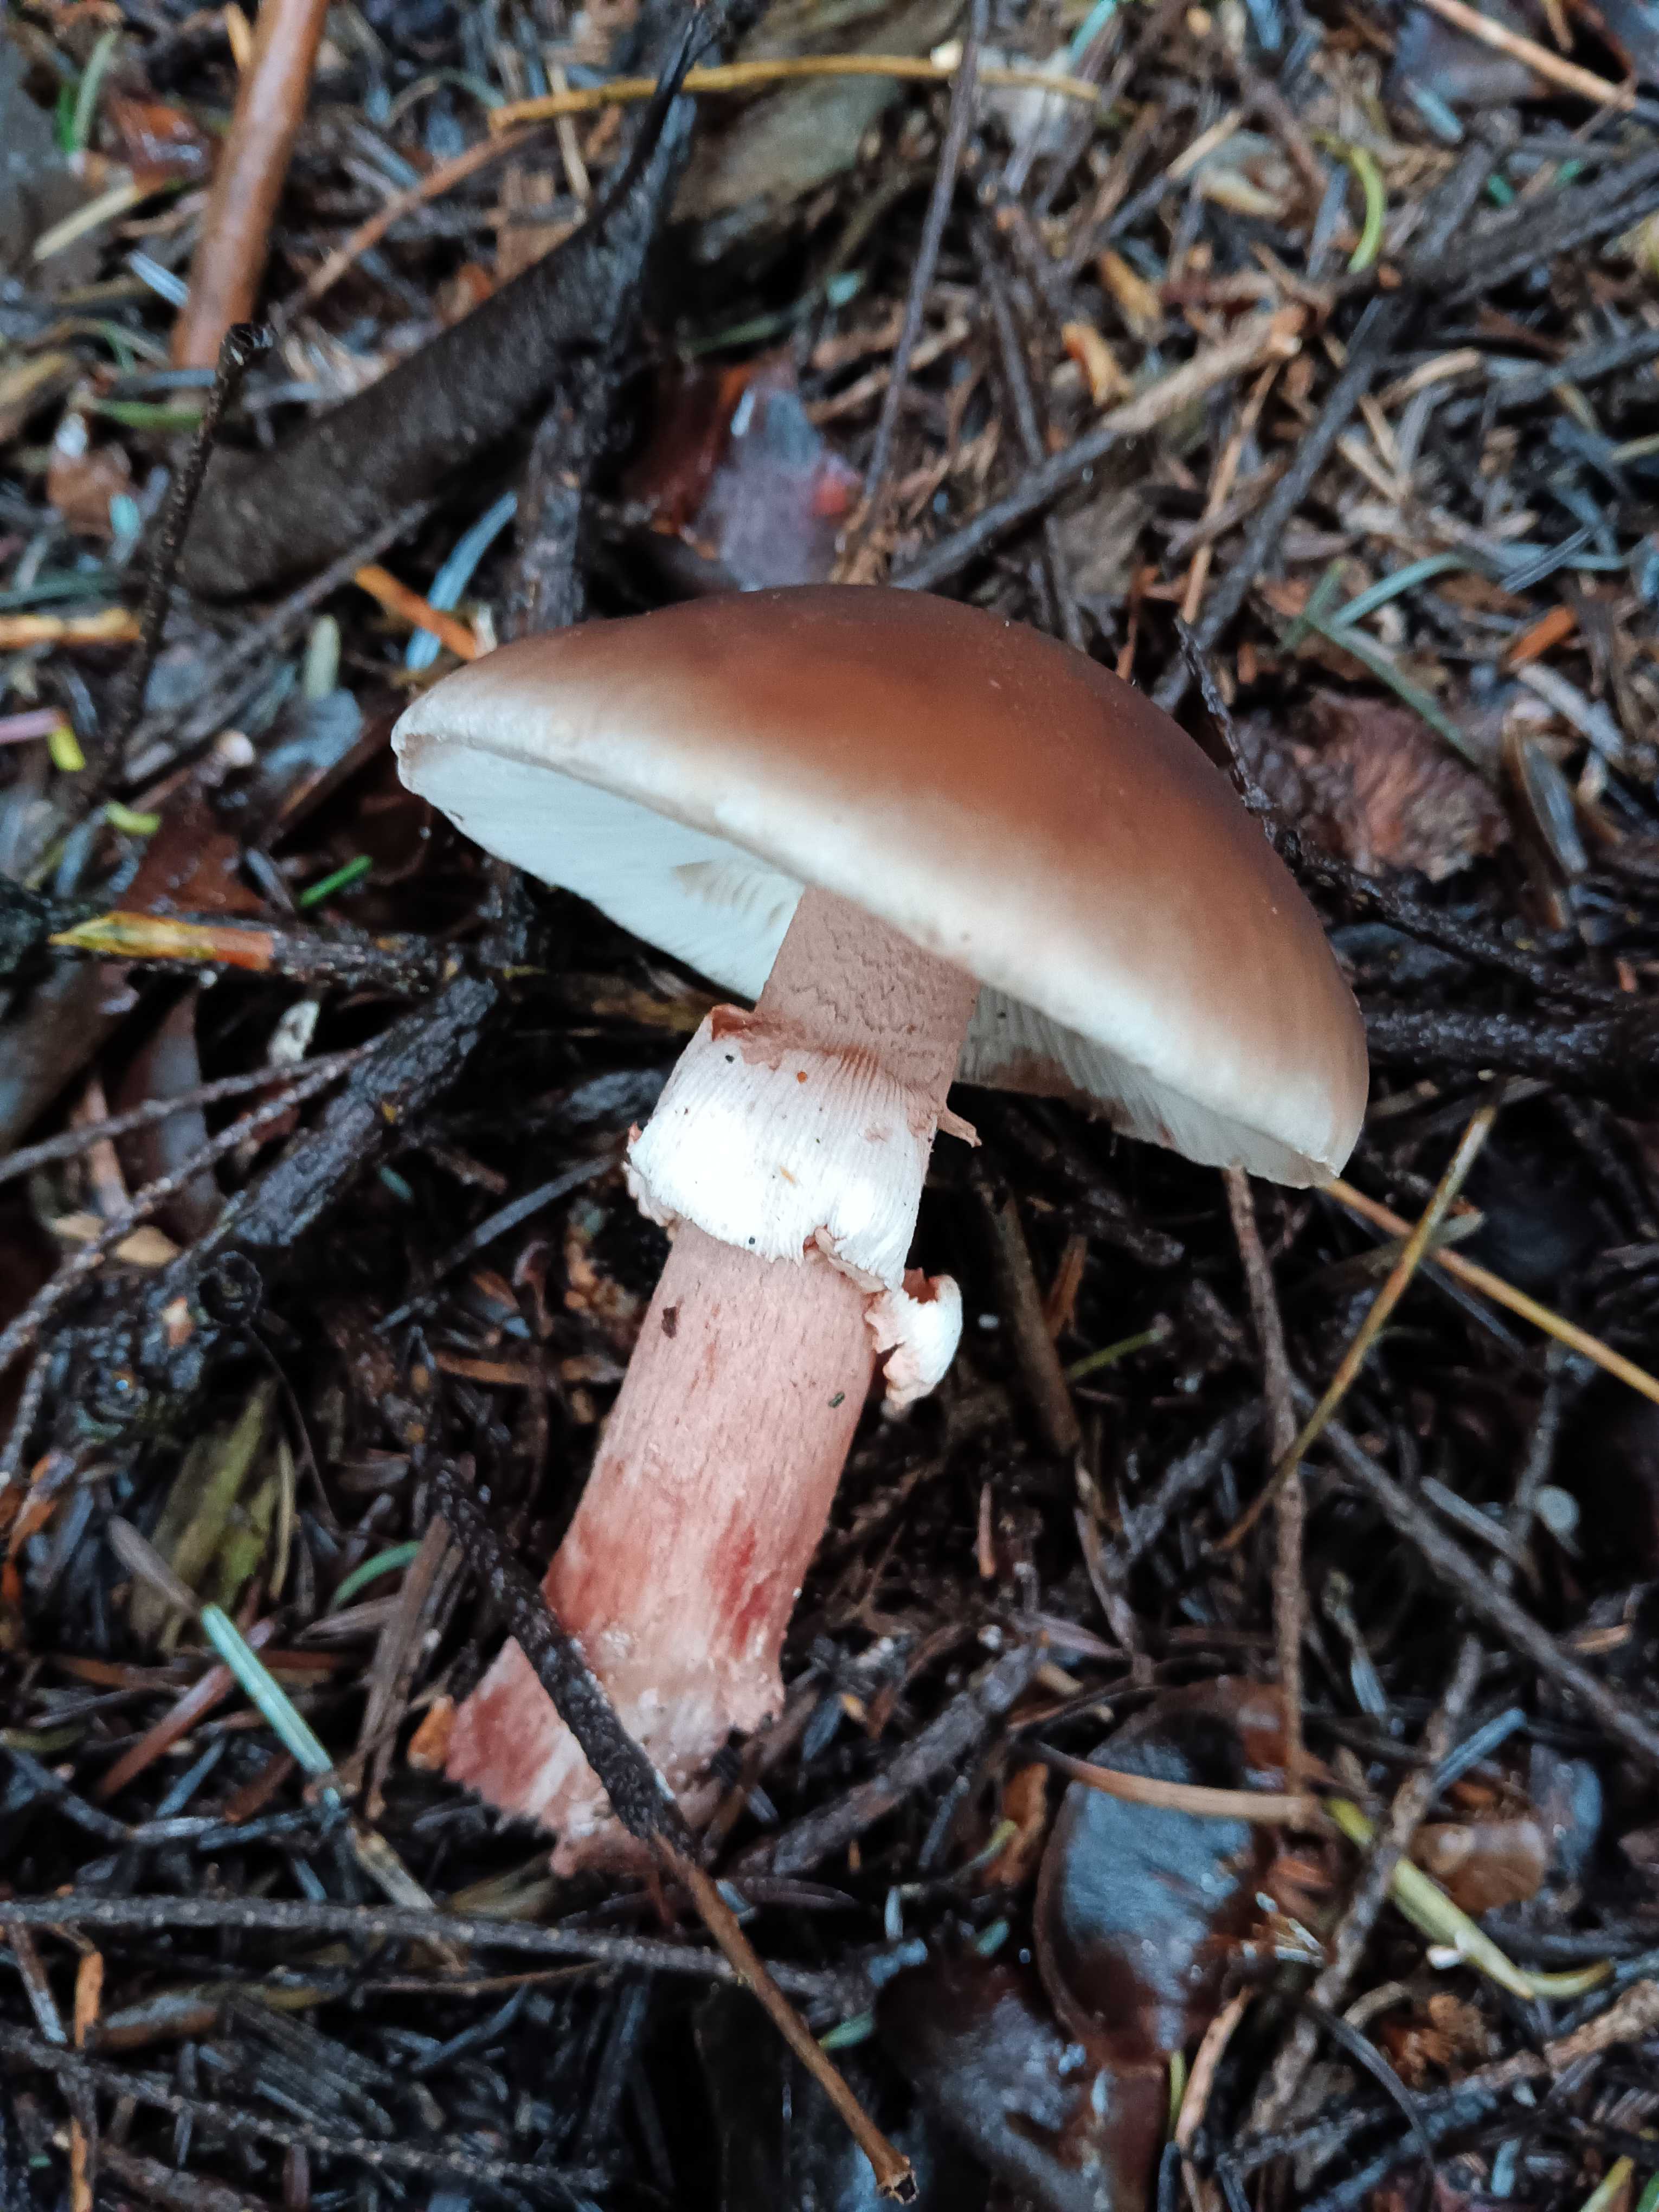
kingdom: Fungi
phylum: Basidiomycota
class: Agaricomycetes
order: Agaricales
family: Amanitaceae
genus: Amanita
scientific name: Amanita rubescens
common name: rødmende fluesvamp
